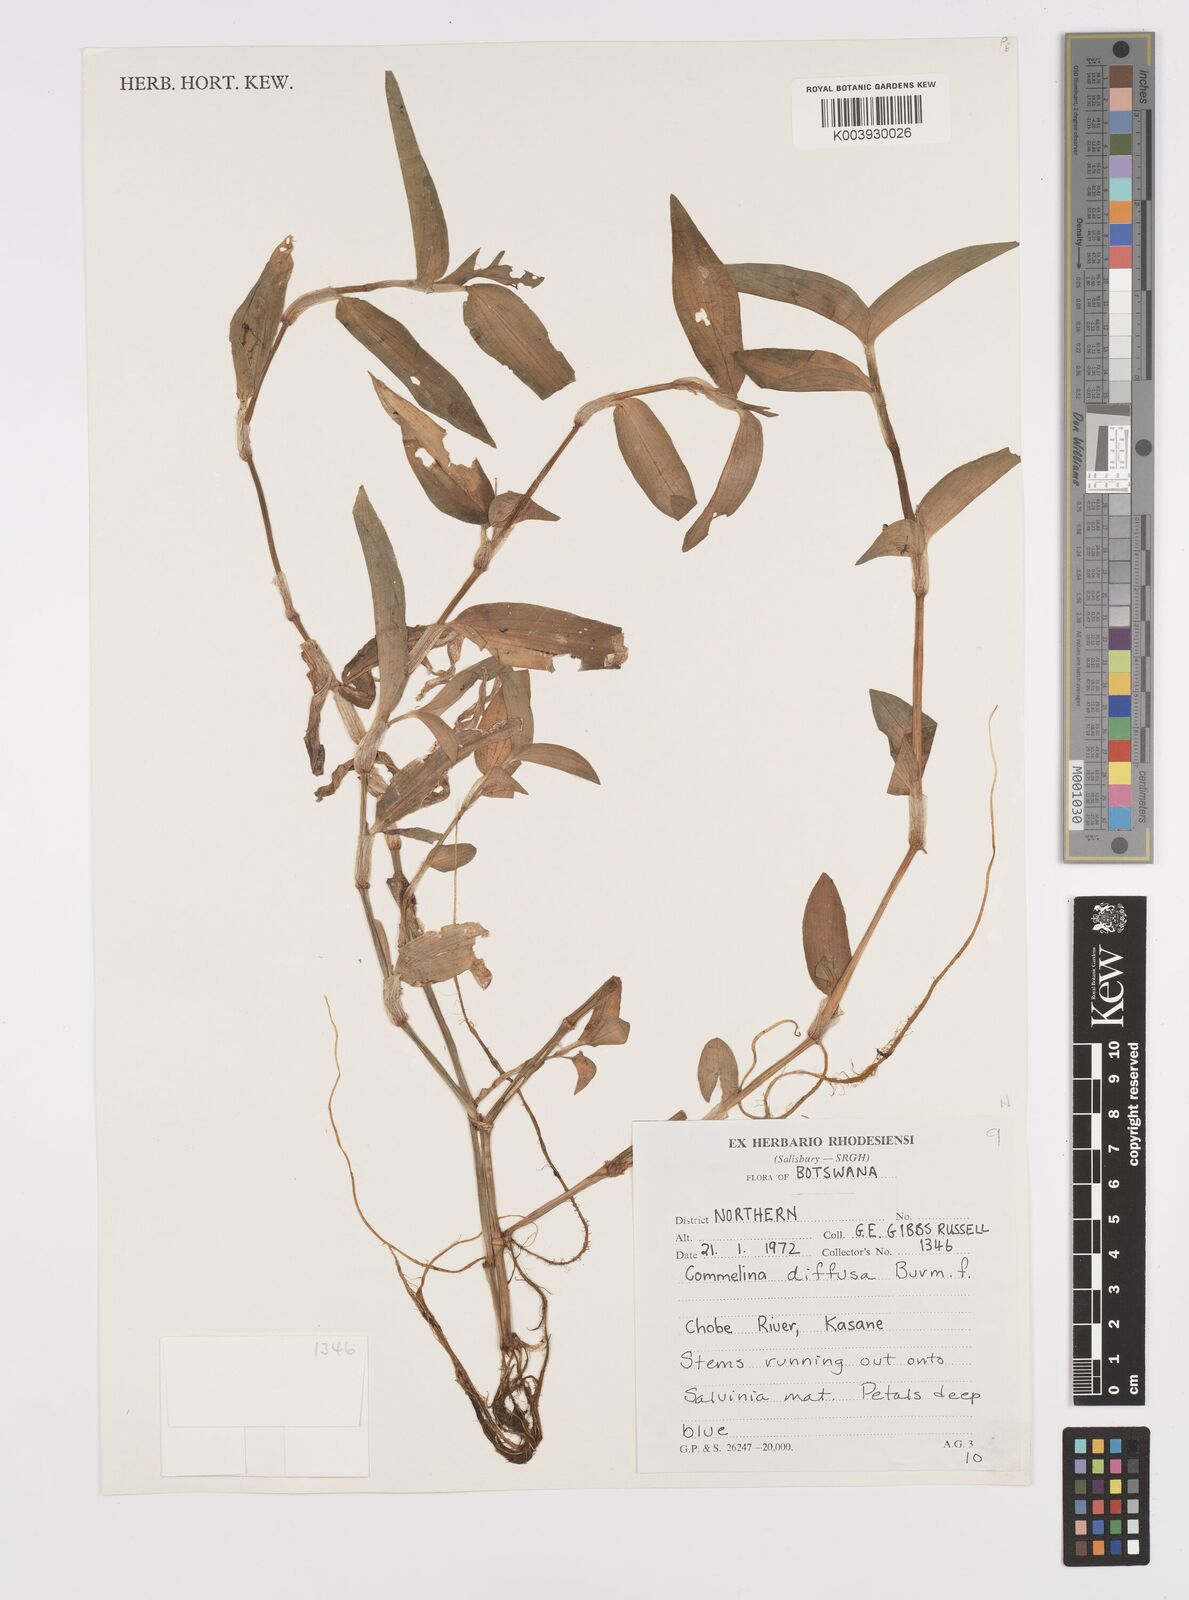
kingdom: Plantae
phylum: Tracheophyta
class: Liliopsida
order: Commelinales
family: Commelinaceae
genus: Commelina
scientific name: Commelina diffusa
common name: Climbing dayflower
